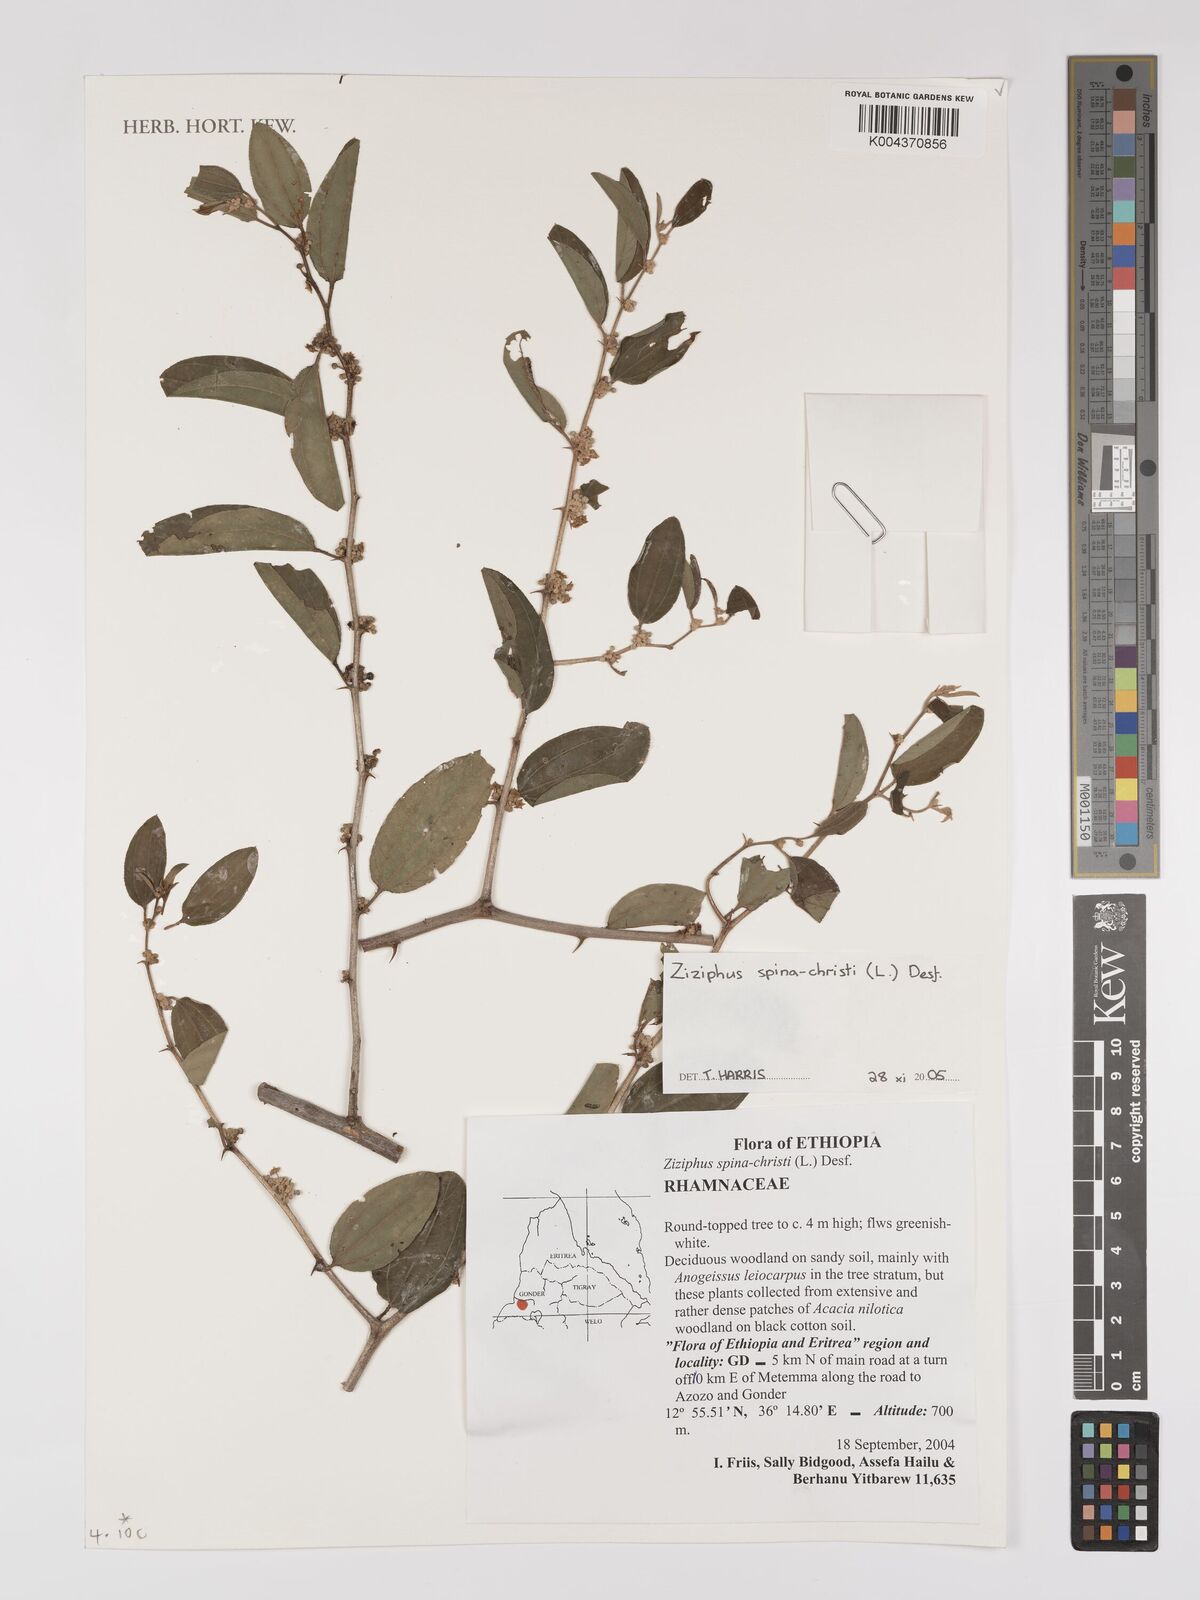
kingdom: Plantae
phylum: Tracheophyta
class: Magnoliopsida
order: Rosales
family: Rhamnaceae
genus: Ziziphus
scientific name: Ziziphus spina-christi
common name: Syrian christ-thorn
